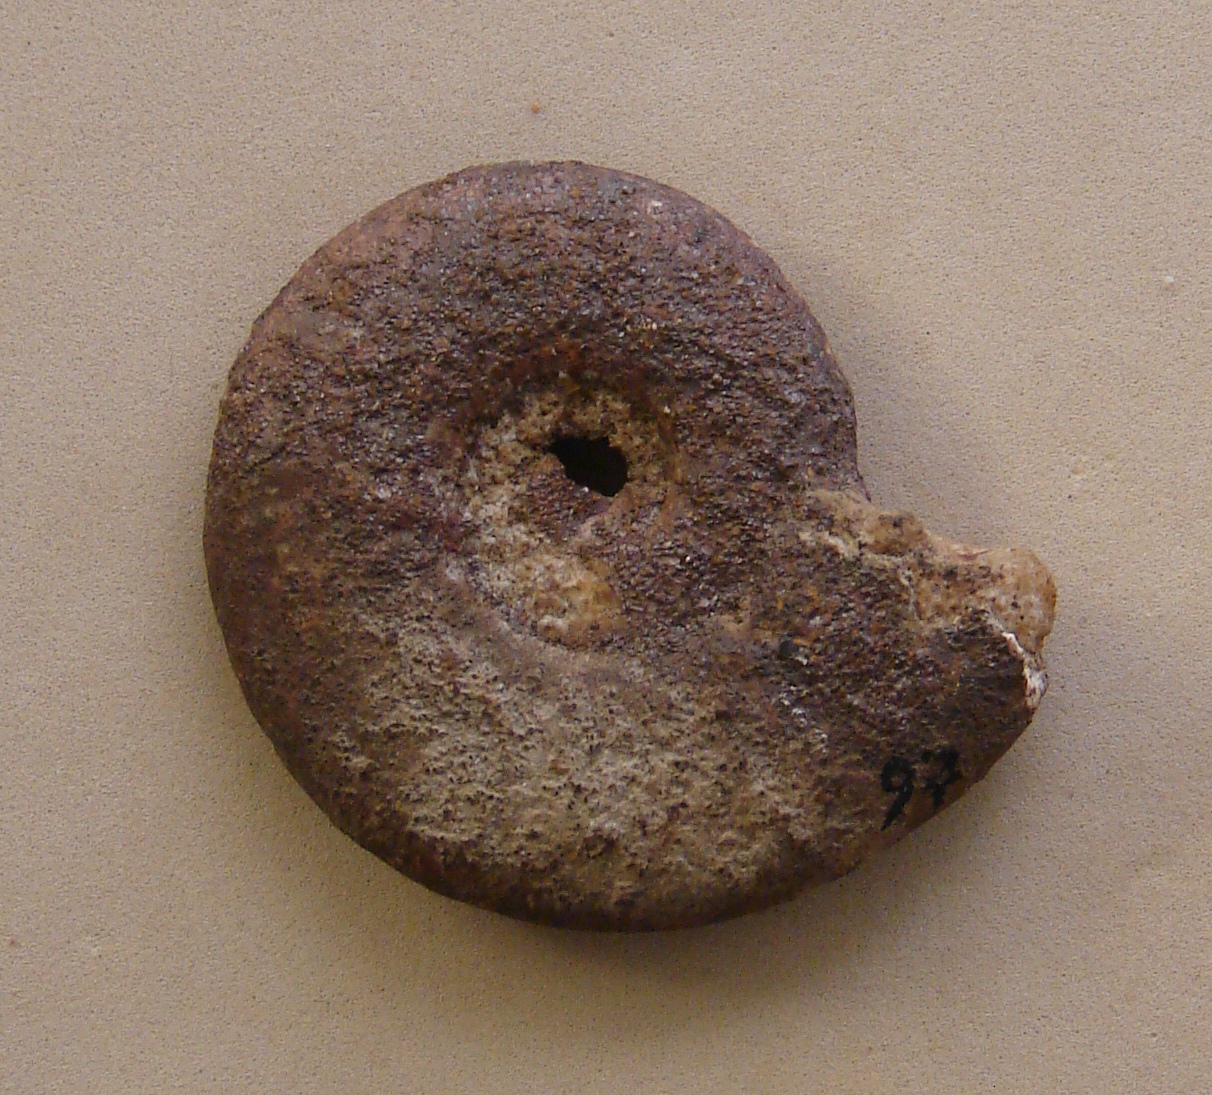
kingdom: Animalia
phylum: Mollusca
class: Cephalopoda
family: Hildoceratidae
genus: Dumortieria
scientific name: Dumortieria moorei
